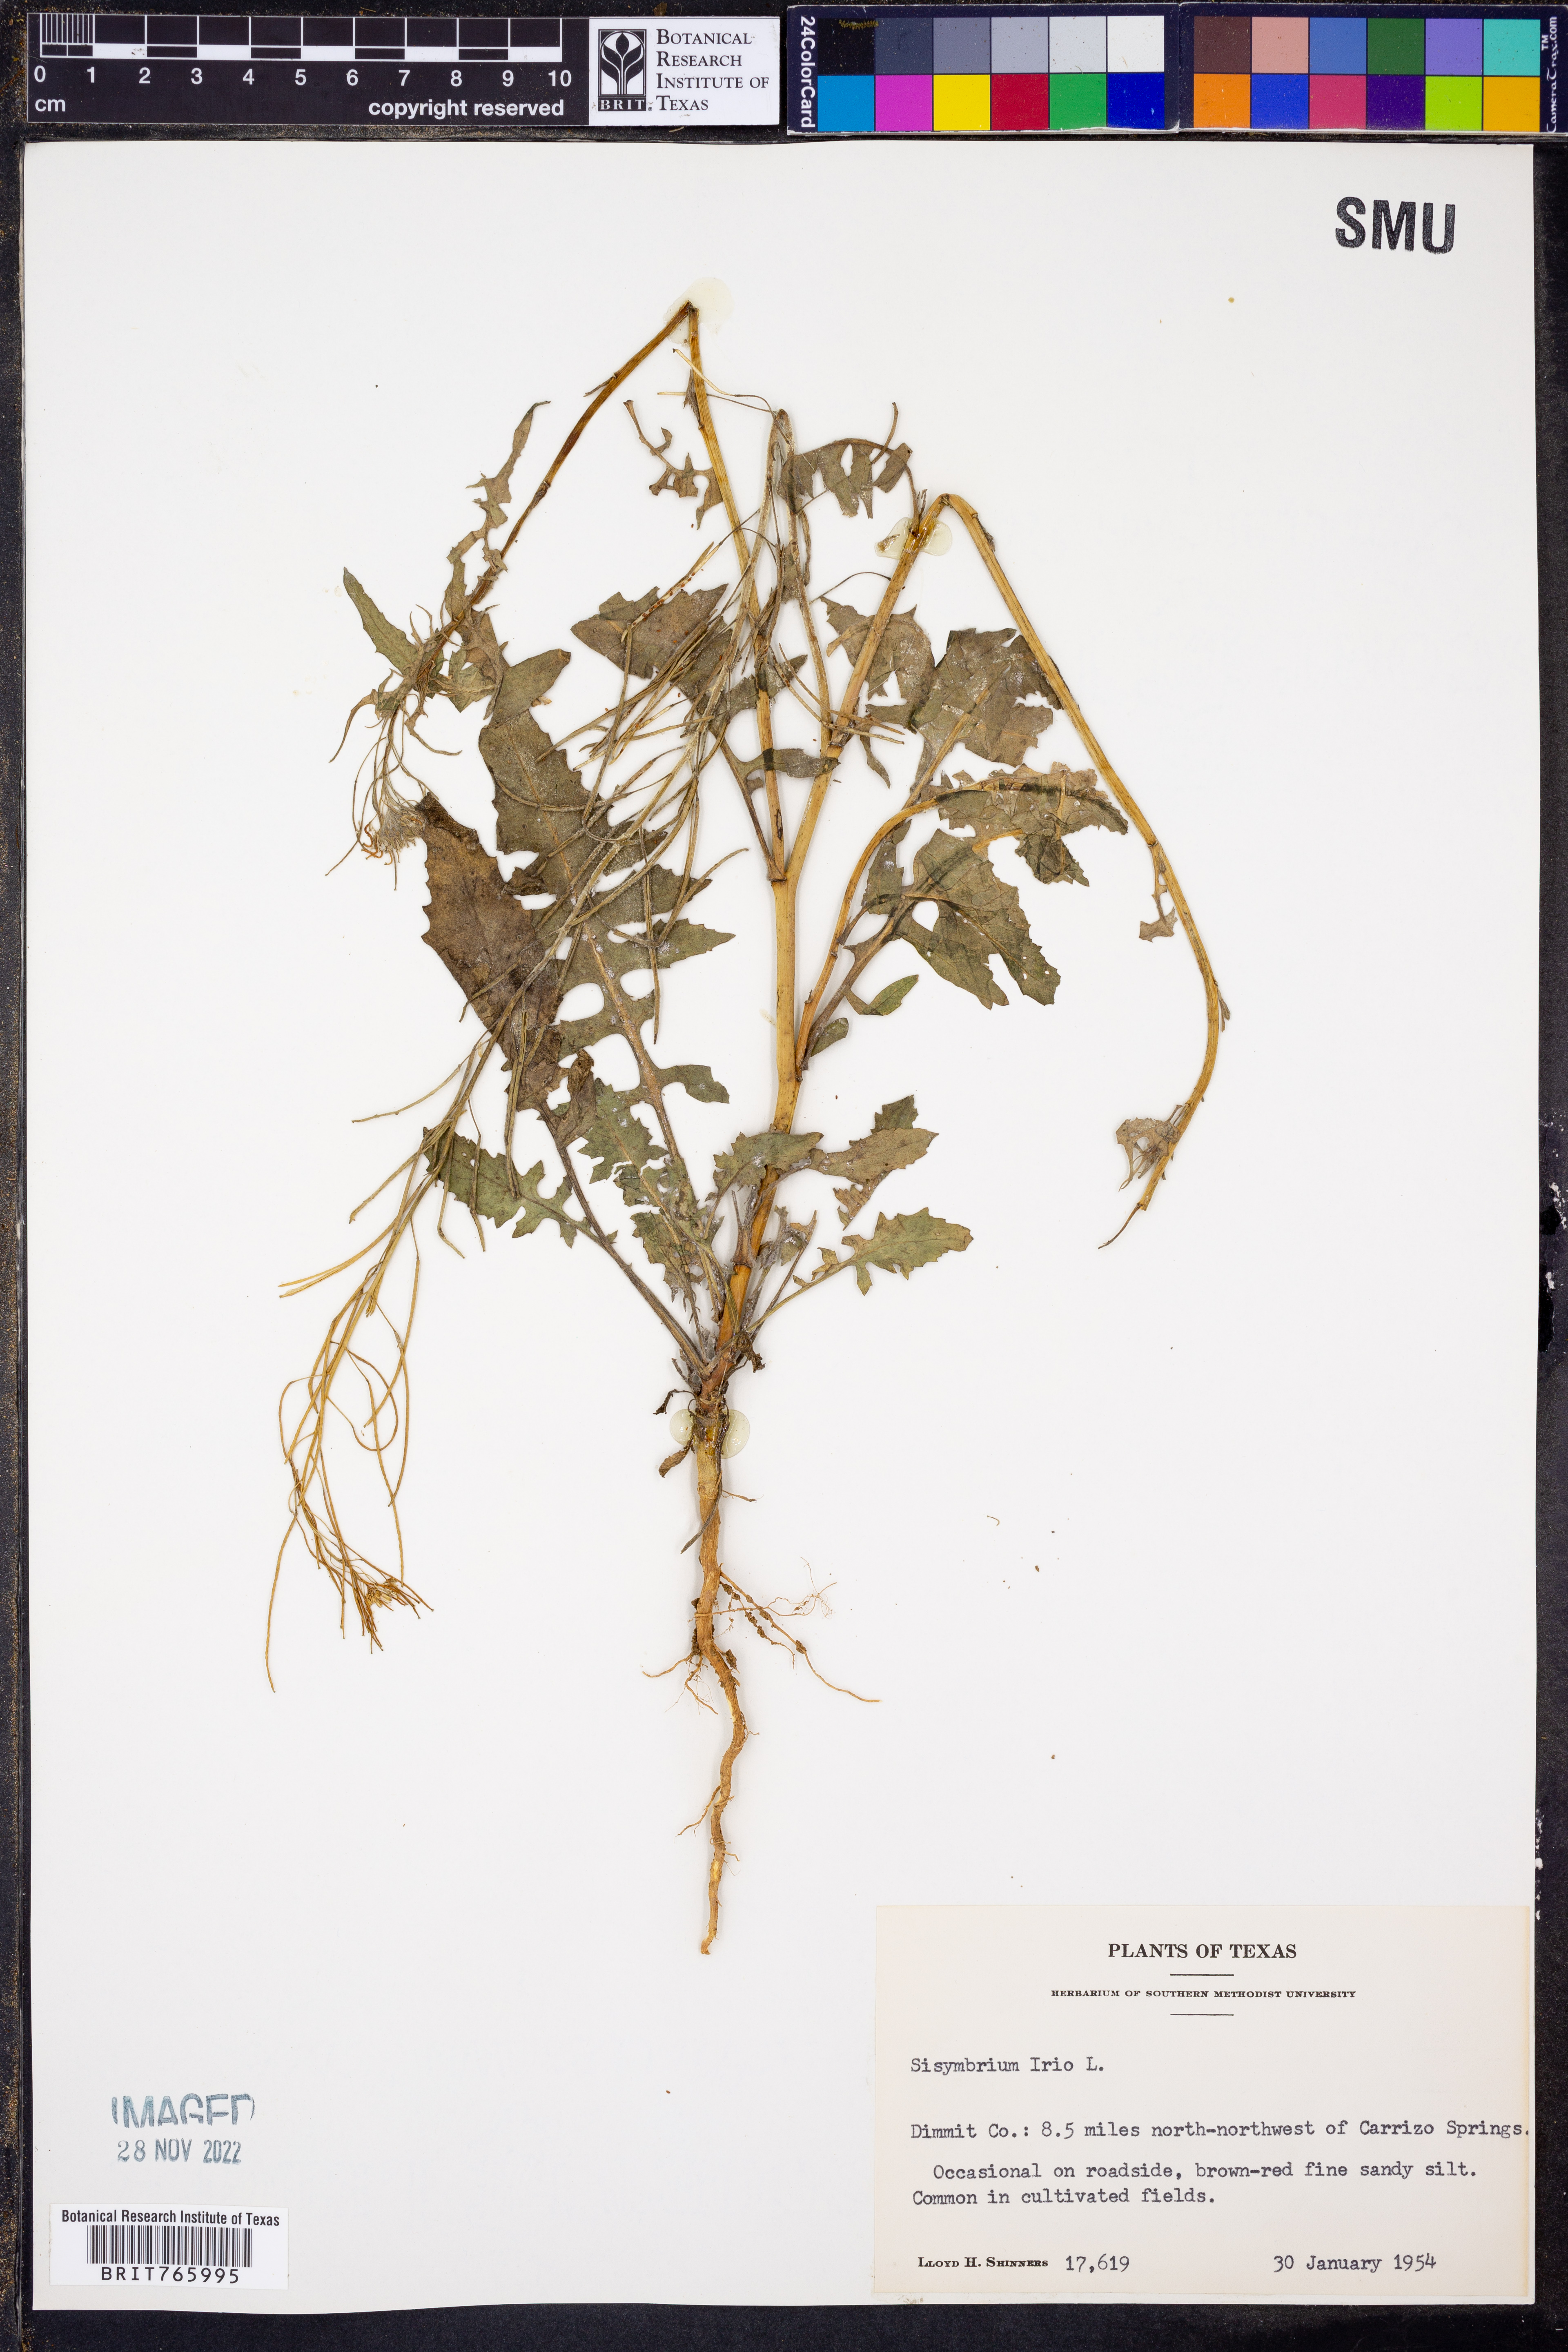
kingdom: Plantae
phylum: Tracheophyta
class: Magnoliopsida
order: Brassicales
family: Brassicaceae
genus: Sisymbrium
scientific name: Sisymbrium irio
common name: London rocket
